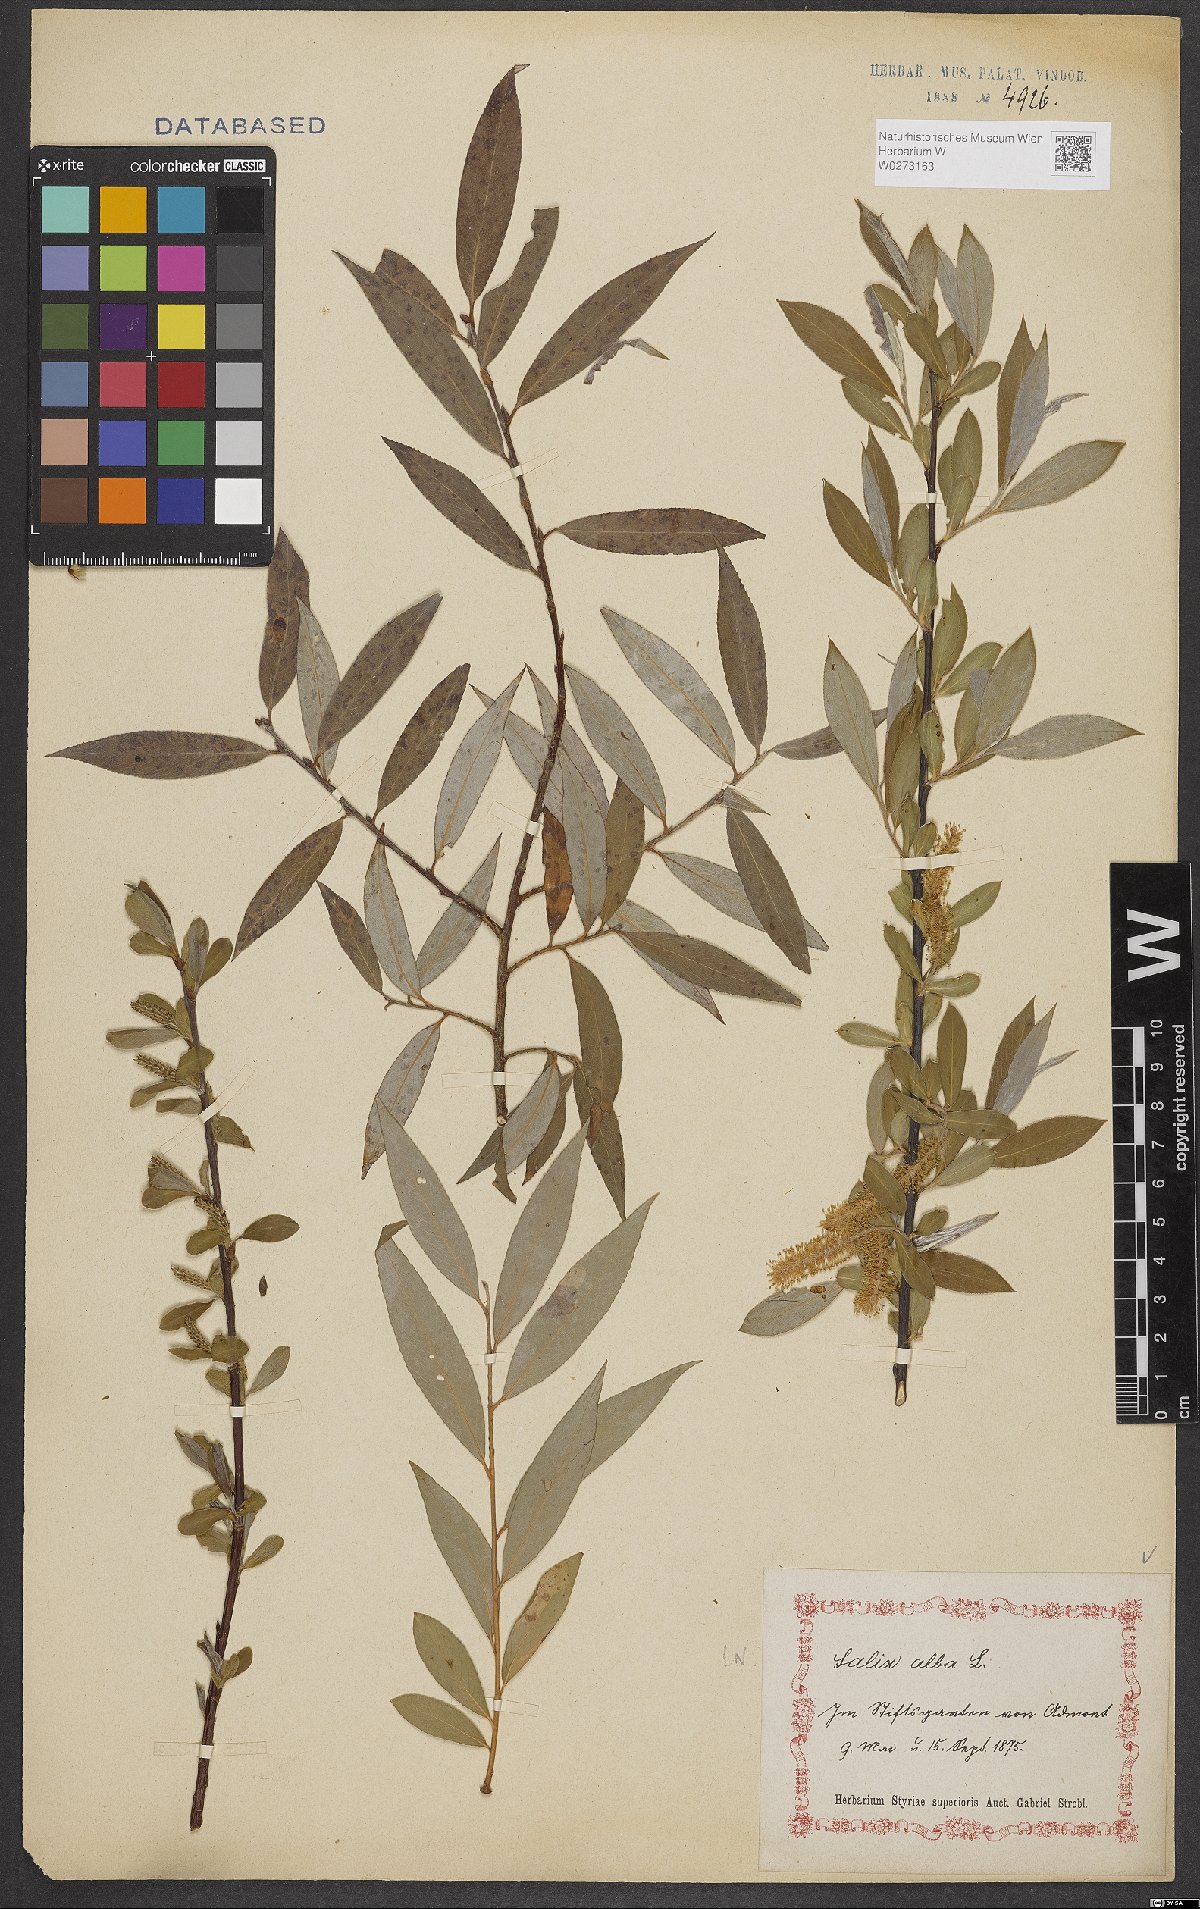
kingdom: Plantae
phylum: Tracheophyta
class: Magnoliopsida
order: Malpighiales
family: Salicaceae
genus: Salix
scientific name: Salix alba
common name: White willow
